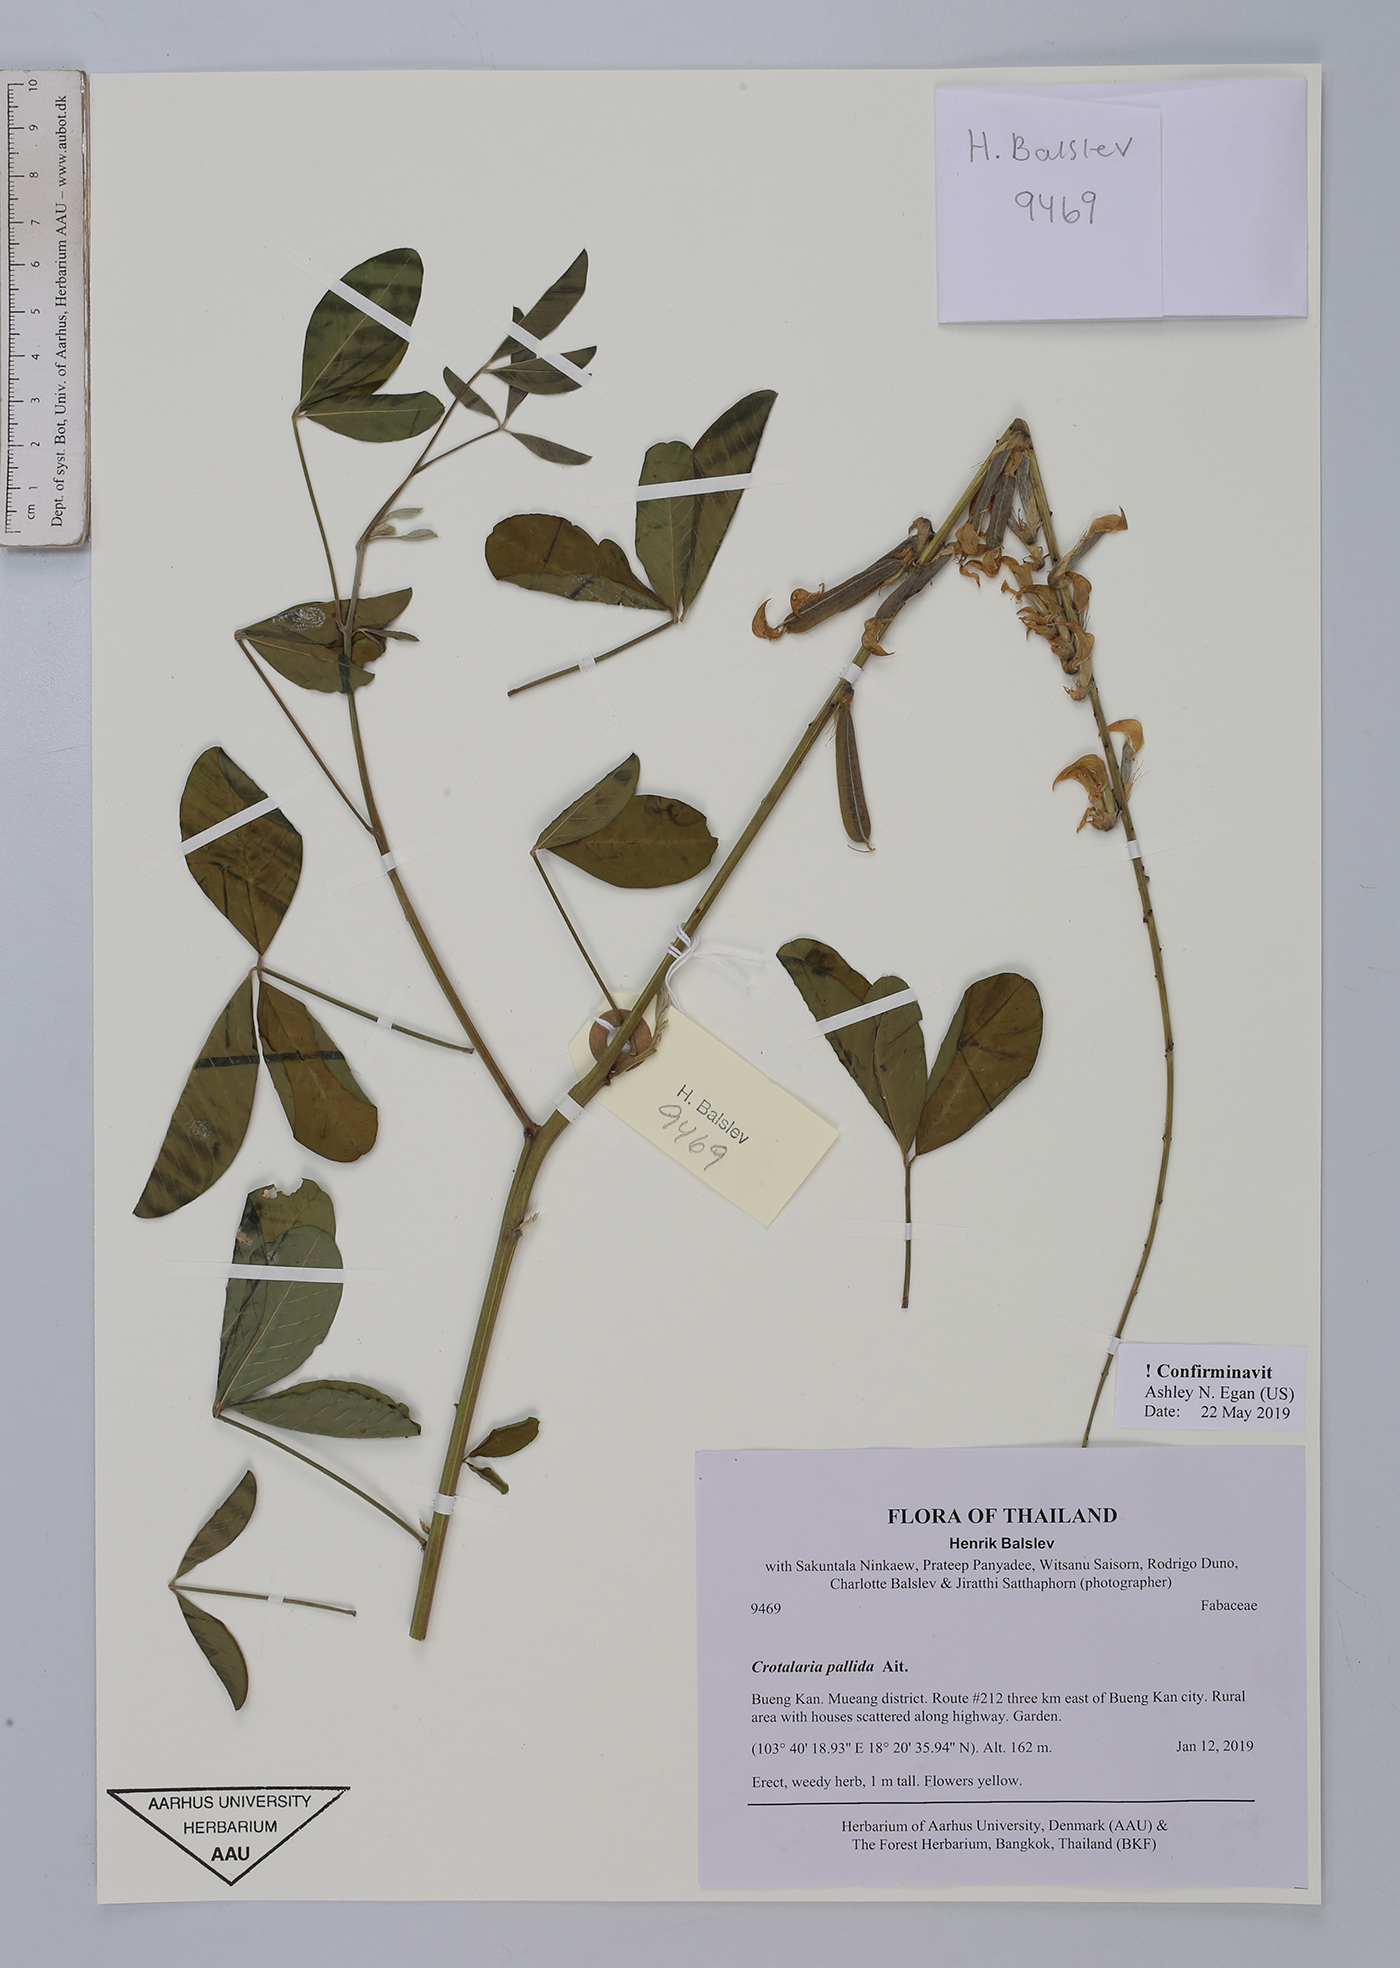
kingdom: Plantae
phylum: Tracheophyta
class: Magnoliopsida
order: Fabales
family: Fabaceae
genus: Crotalaria
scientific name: Crotalaria pallida
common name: Smooth rattlebox
